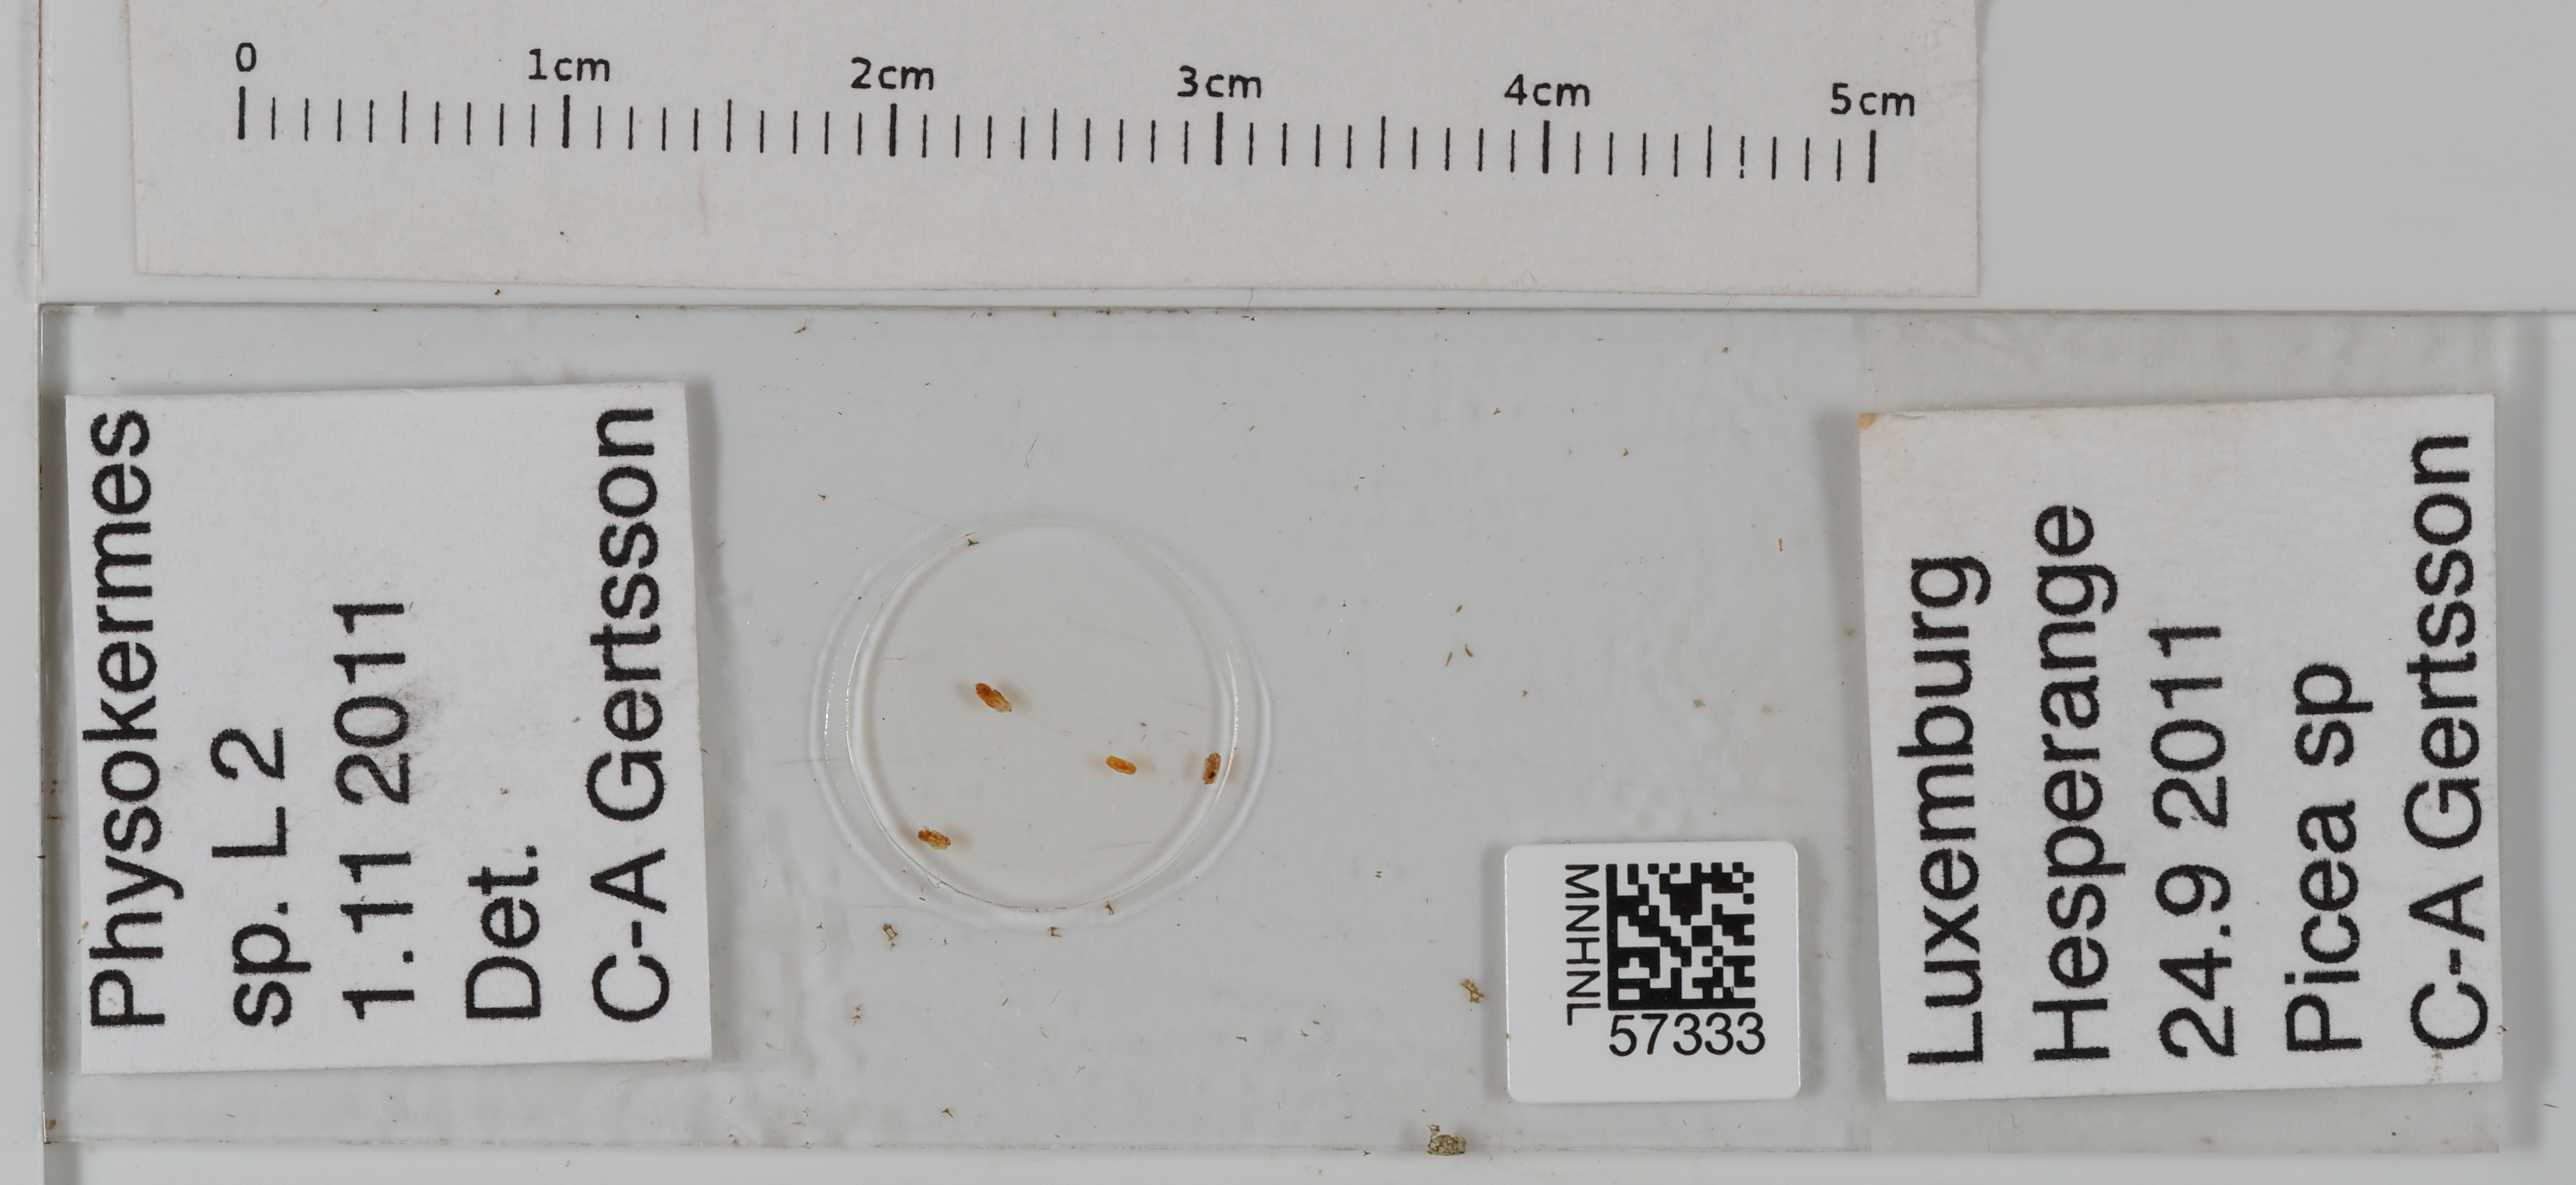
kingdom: Animalia
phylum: Arthropoda
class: Insecta
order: Hemiptera
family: Coccidae
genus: Physokermes
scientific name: Physokermes
